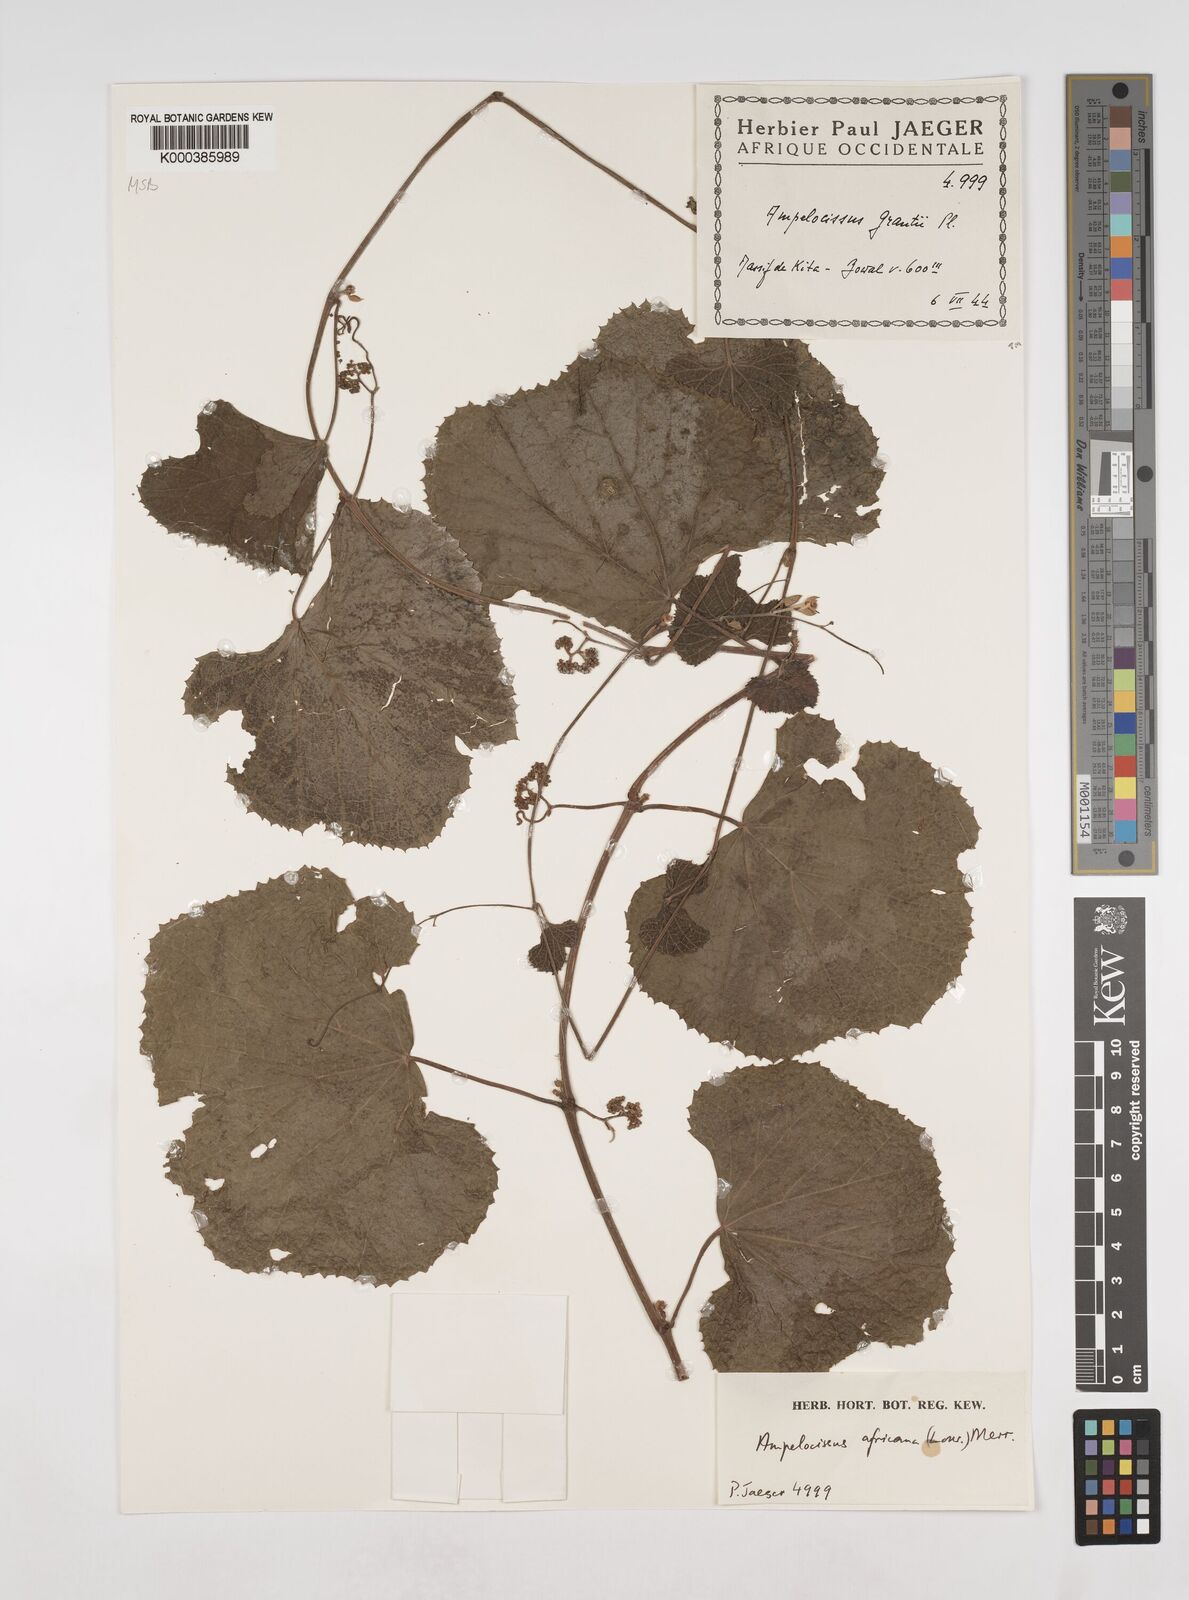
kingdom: Plantae
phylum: Tracheophyta
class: Magnoliopsida
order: Vitales
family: Vitaceae
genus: Ampelocissus
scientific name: Ampelocissus africana
